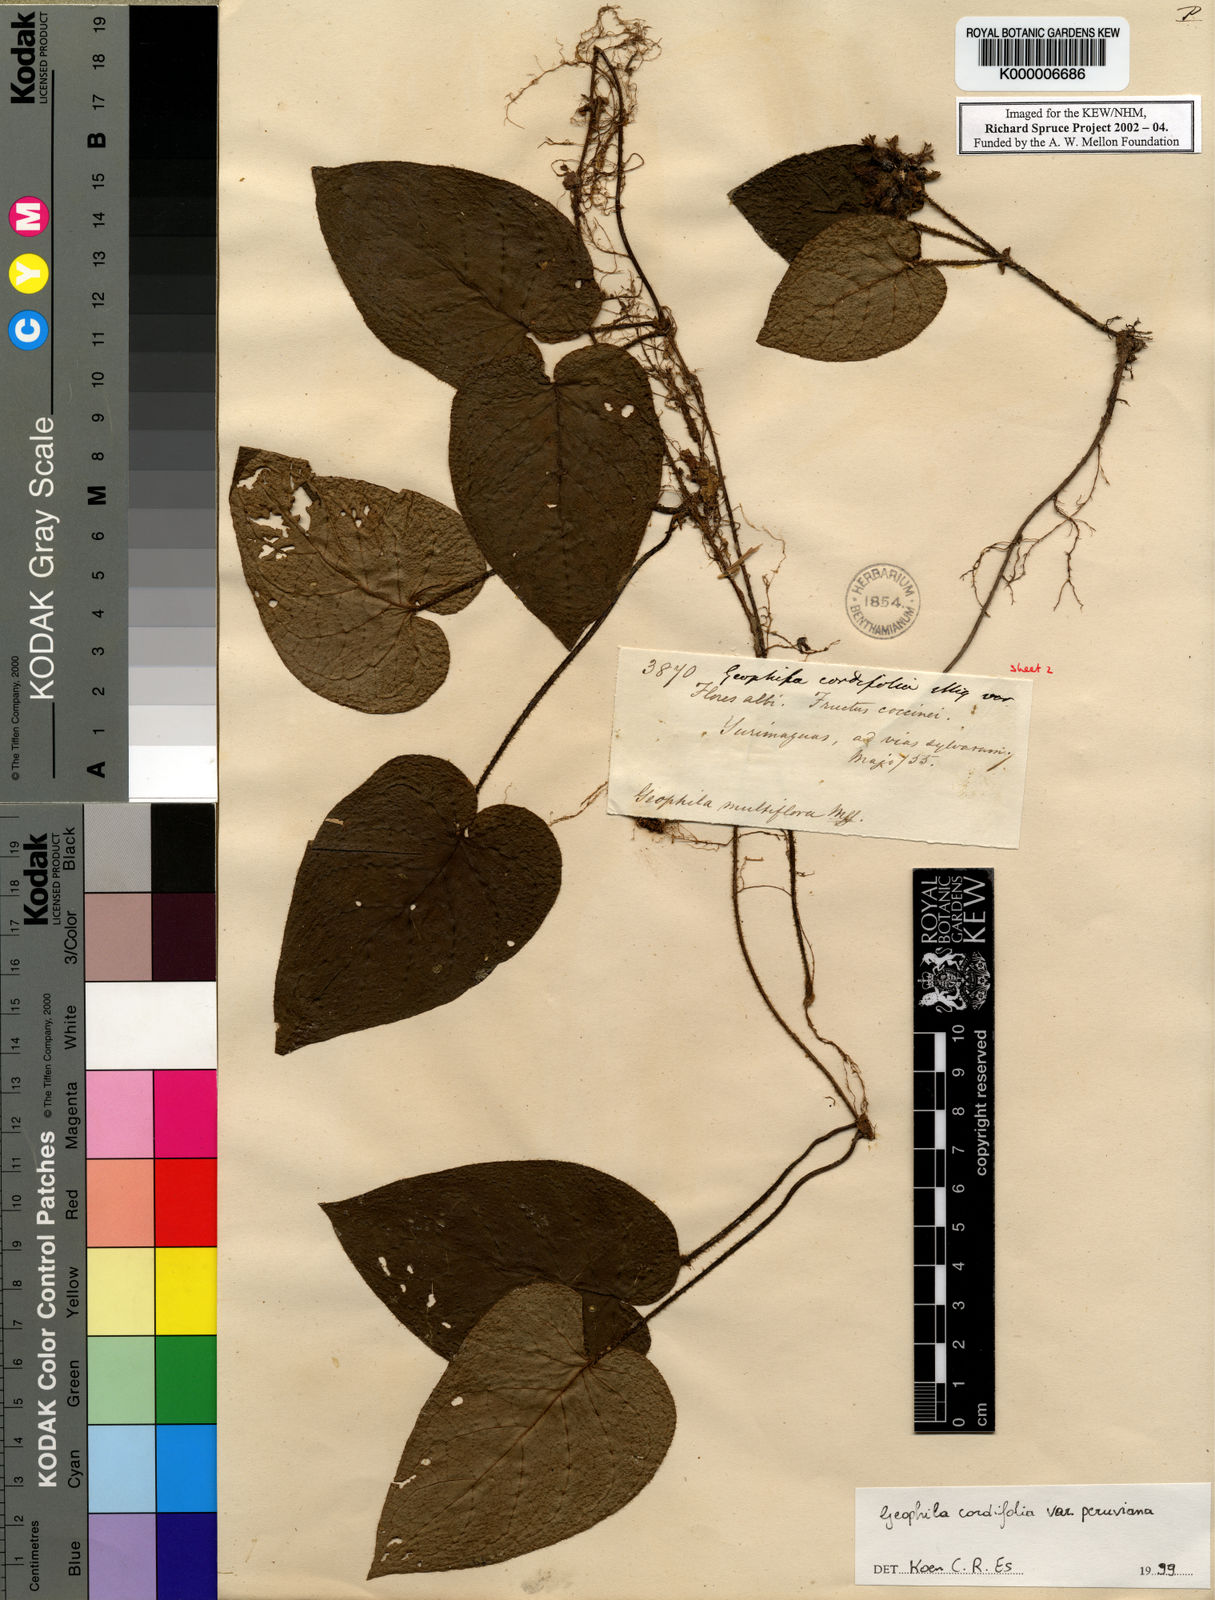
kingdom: Plantae
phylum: Tracheophyta
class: Magnoliopsida
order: Gentianales
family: Rubiaceae
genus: Geophila
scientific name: Geophila cordifolia
